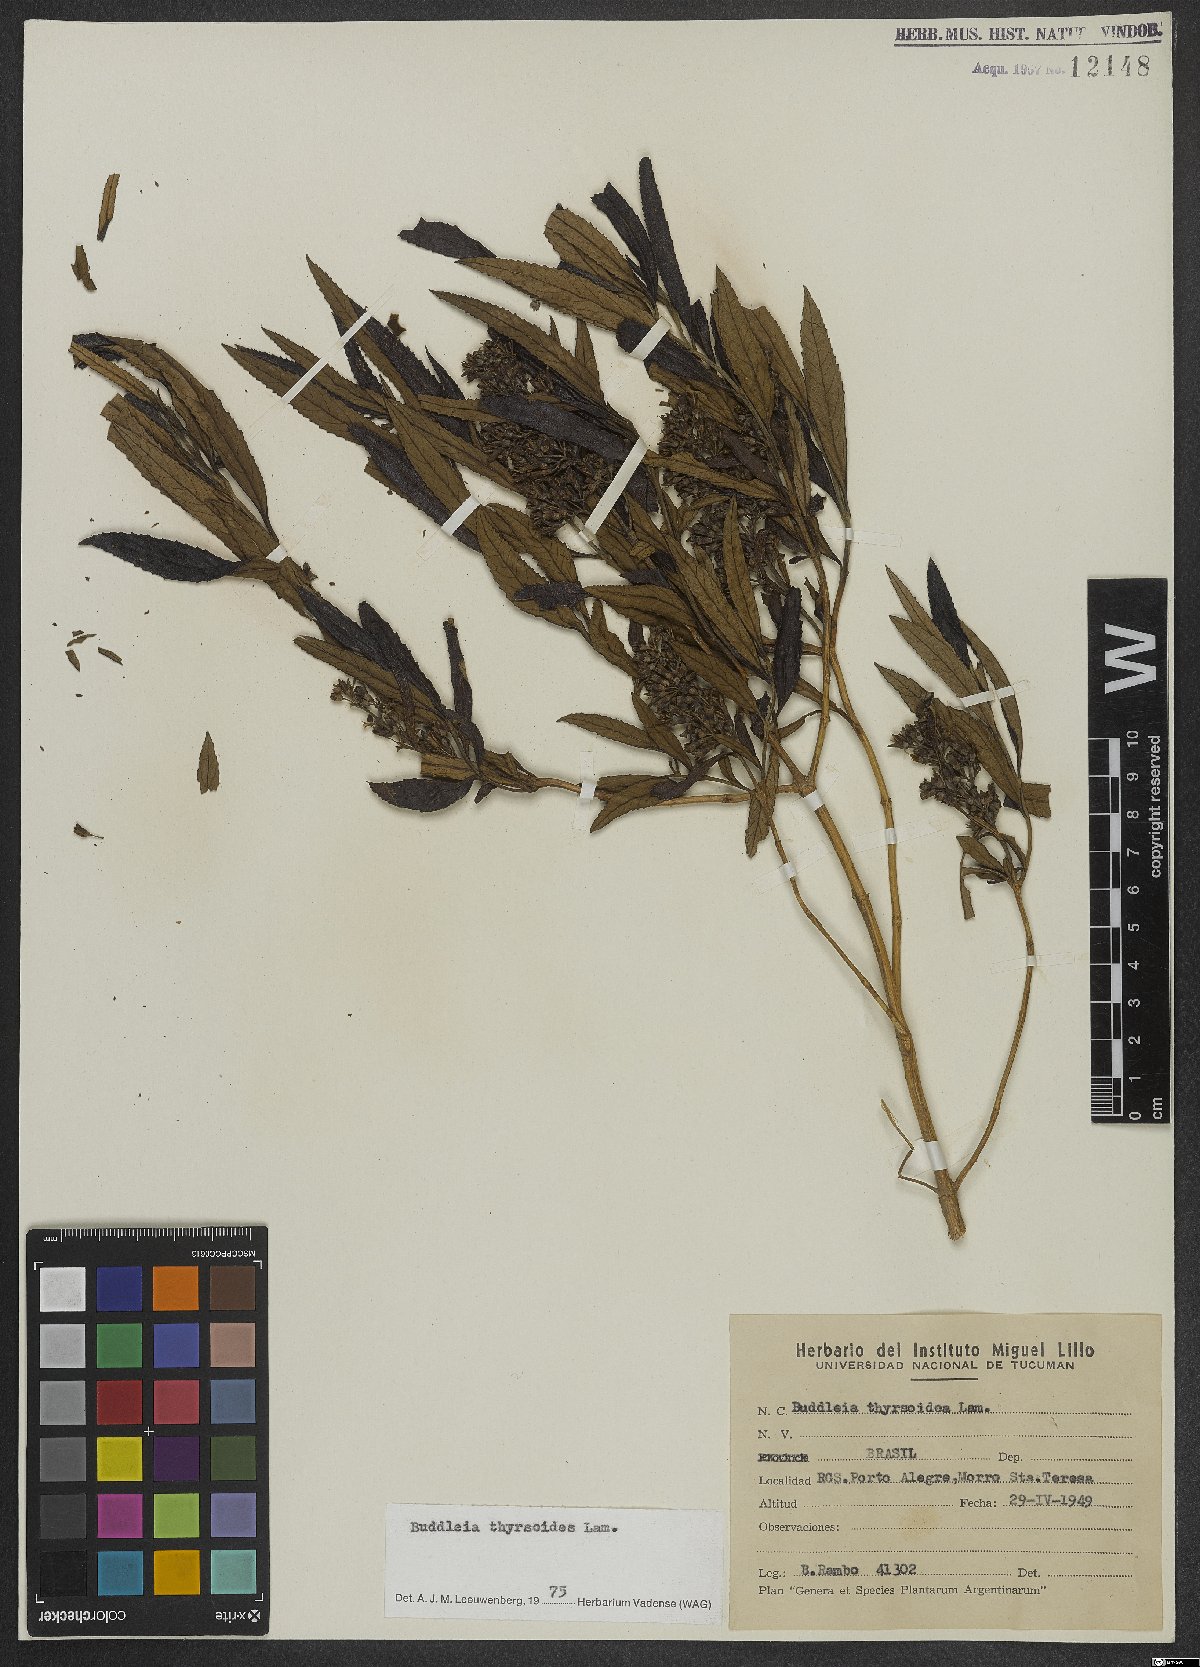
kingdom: Plantae
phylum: Tracheophyta
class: Magnoliopsida
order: Lamiales
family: Scrophulariaceae
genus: Buddleja
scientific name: Buddleja thyrsoides
